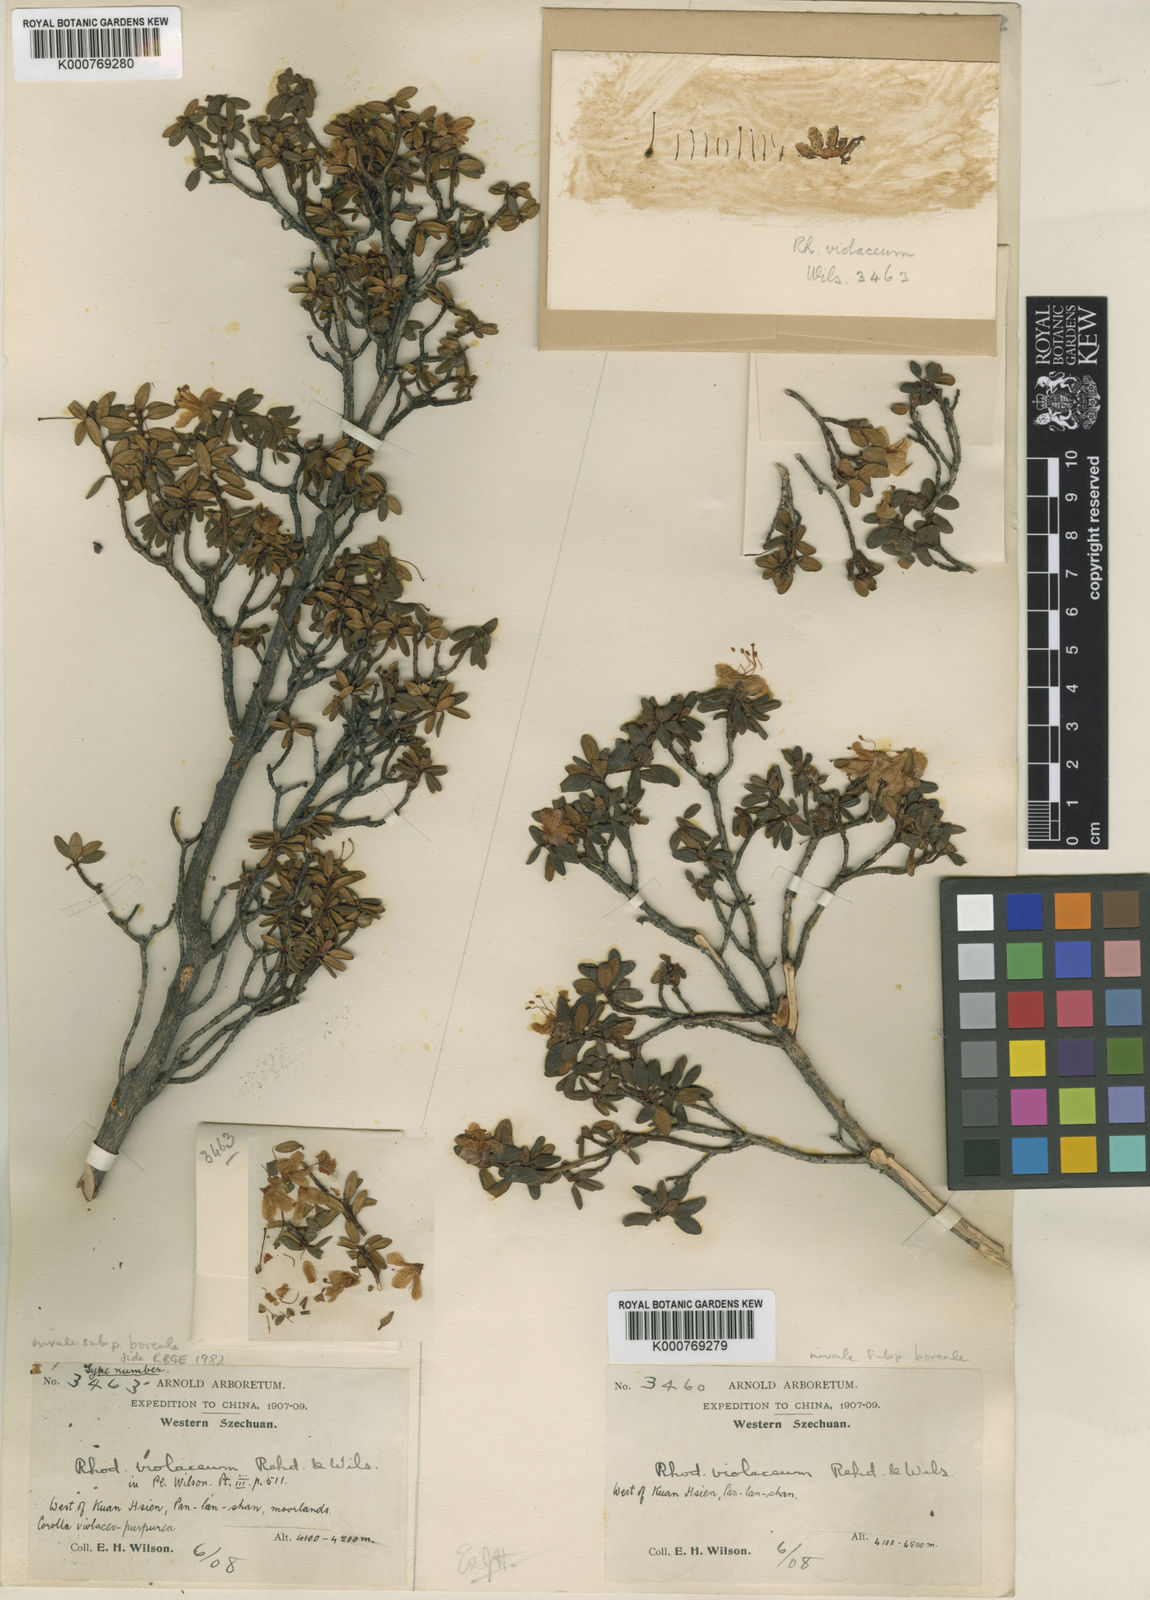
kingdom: Plantae
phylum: Tracheophyta
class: Magnoliopsida
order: Ericales
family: Ericaceae
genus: Rhododendron
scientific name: Rhododendron nivale
